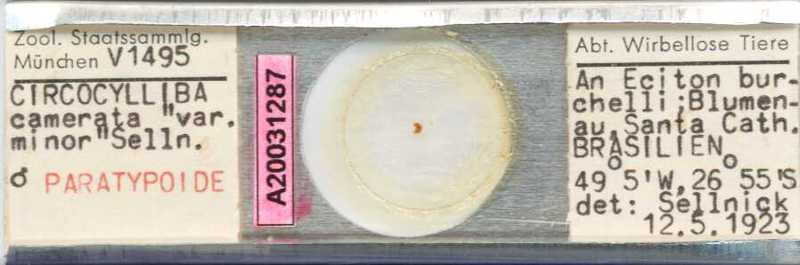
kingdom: Animalia
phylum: Arthropoda
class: Arachnida
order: Mesostigmata
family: Circocyllibamidae
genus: Circocylliba
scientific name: Circocylliba
